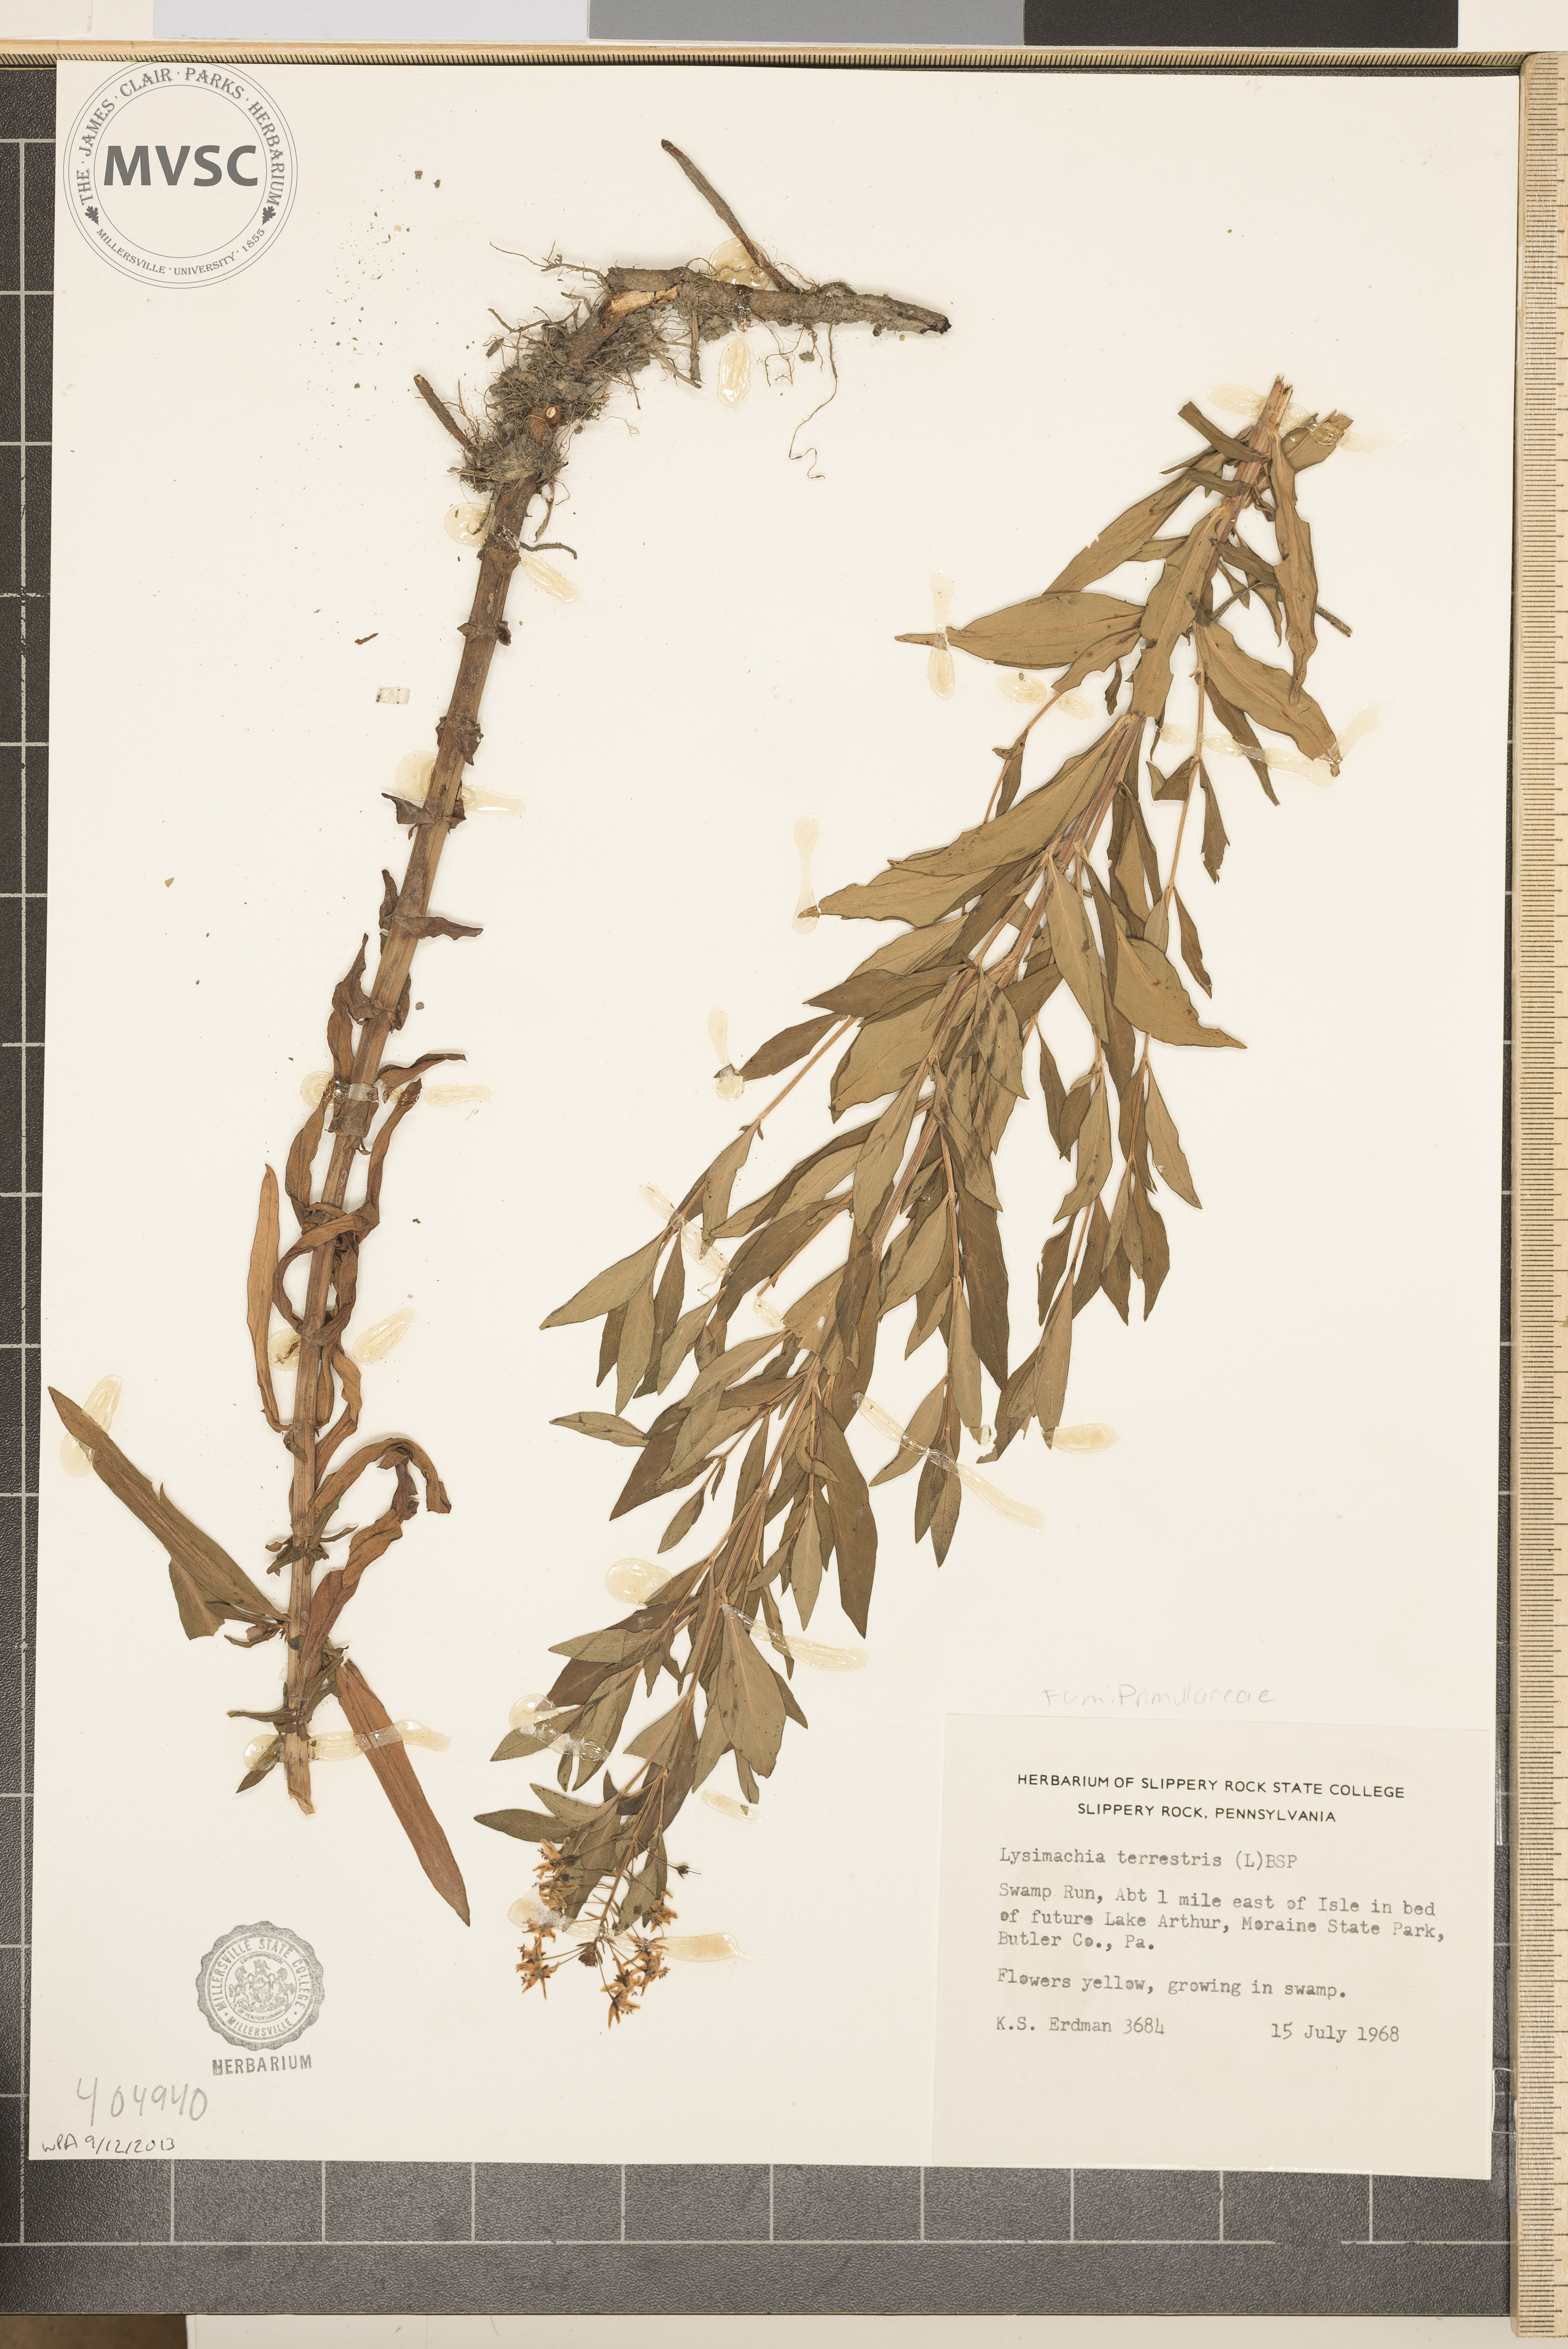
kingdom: Plantae
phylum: Tracheophyta
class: Magnoliopsida
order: Ericales
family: Primulaceae
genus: Lysimachia
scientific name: Lysimachia terrestris
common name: Lake loosestrife
